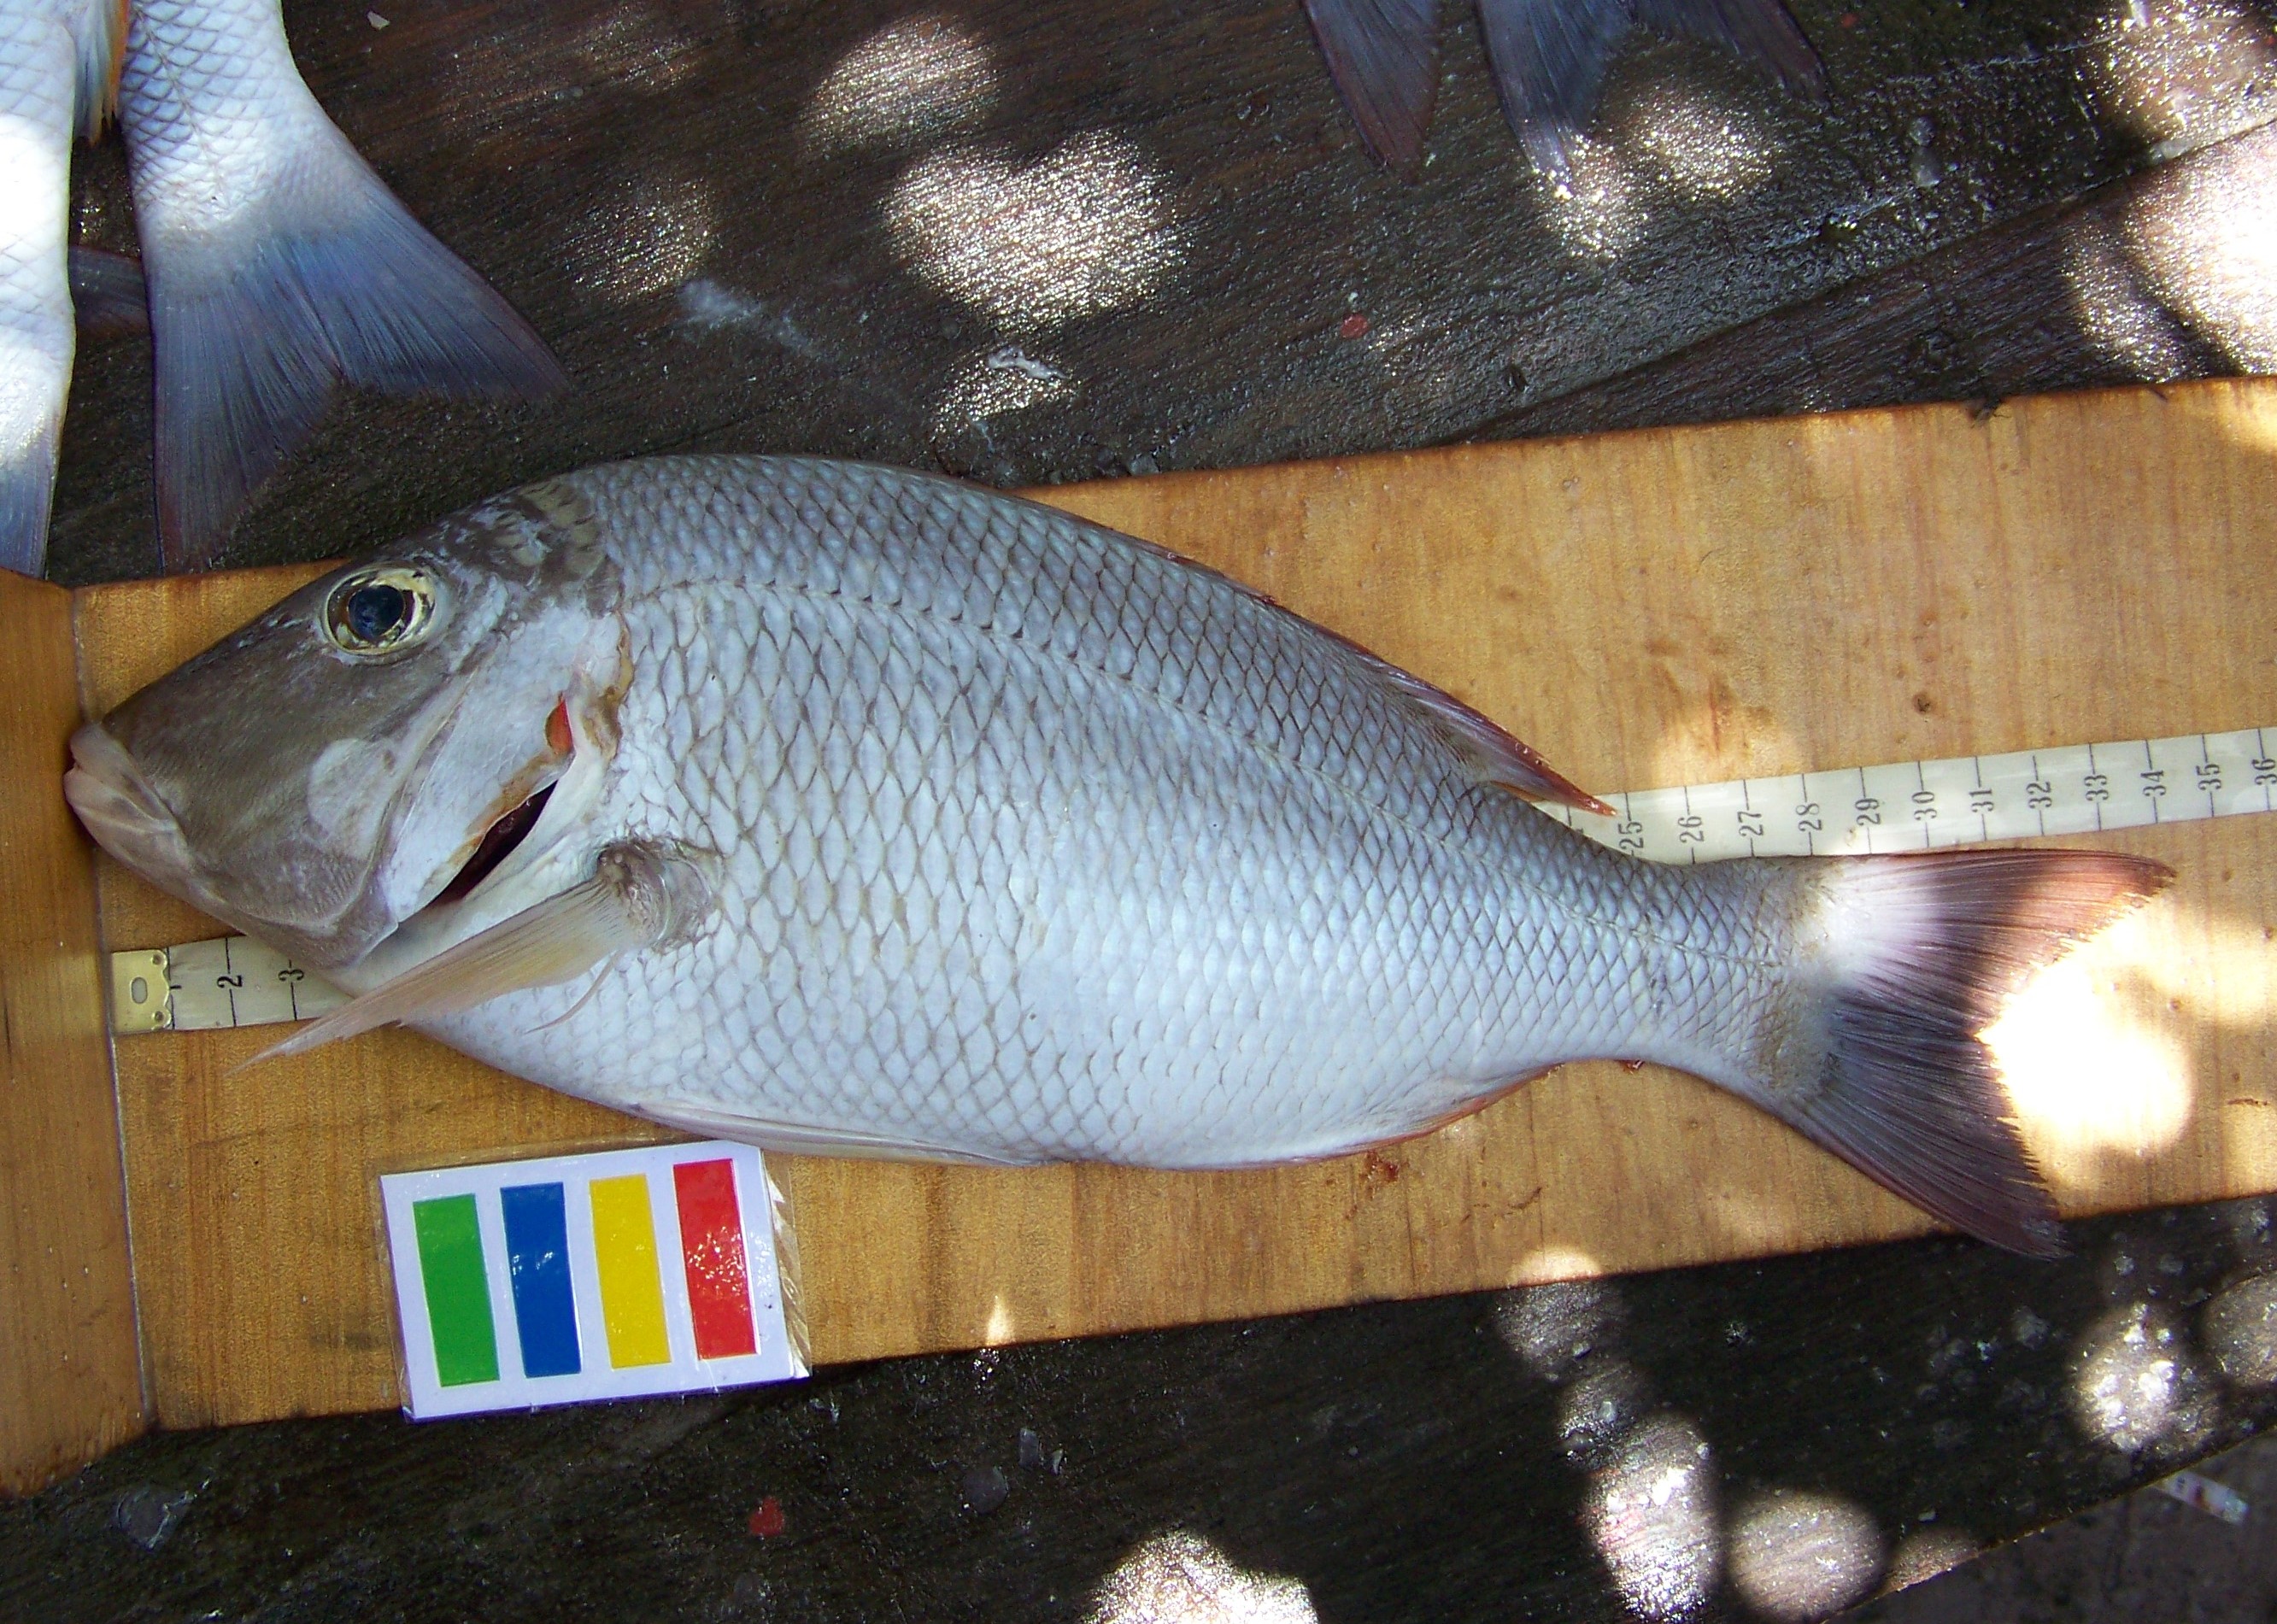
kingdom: Animalia
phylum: Chordata
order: Perciformes
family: Lethrinidae
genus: Lethrinus
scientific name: Lethrinus lentjan
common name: Redspot emperor
